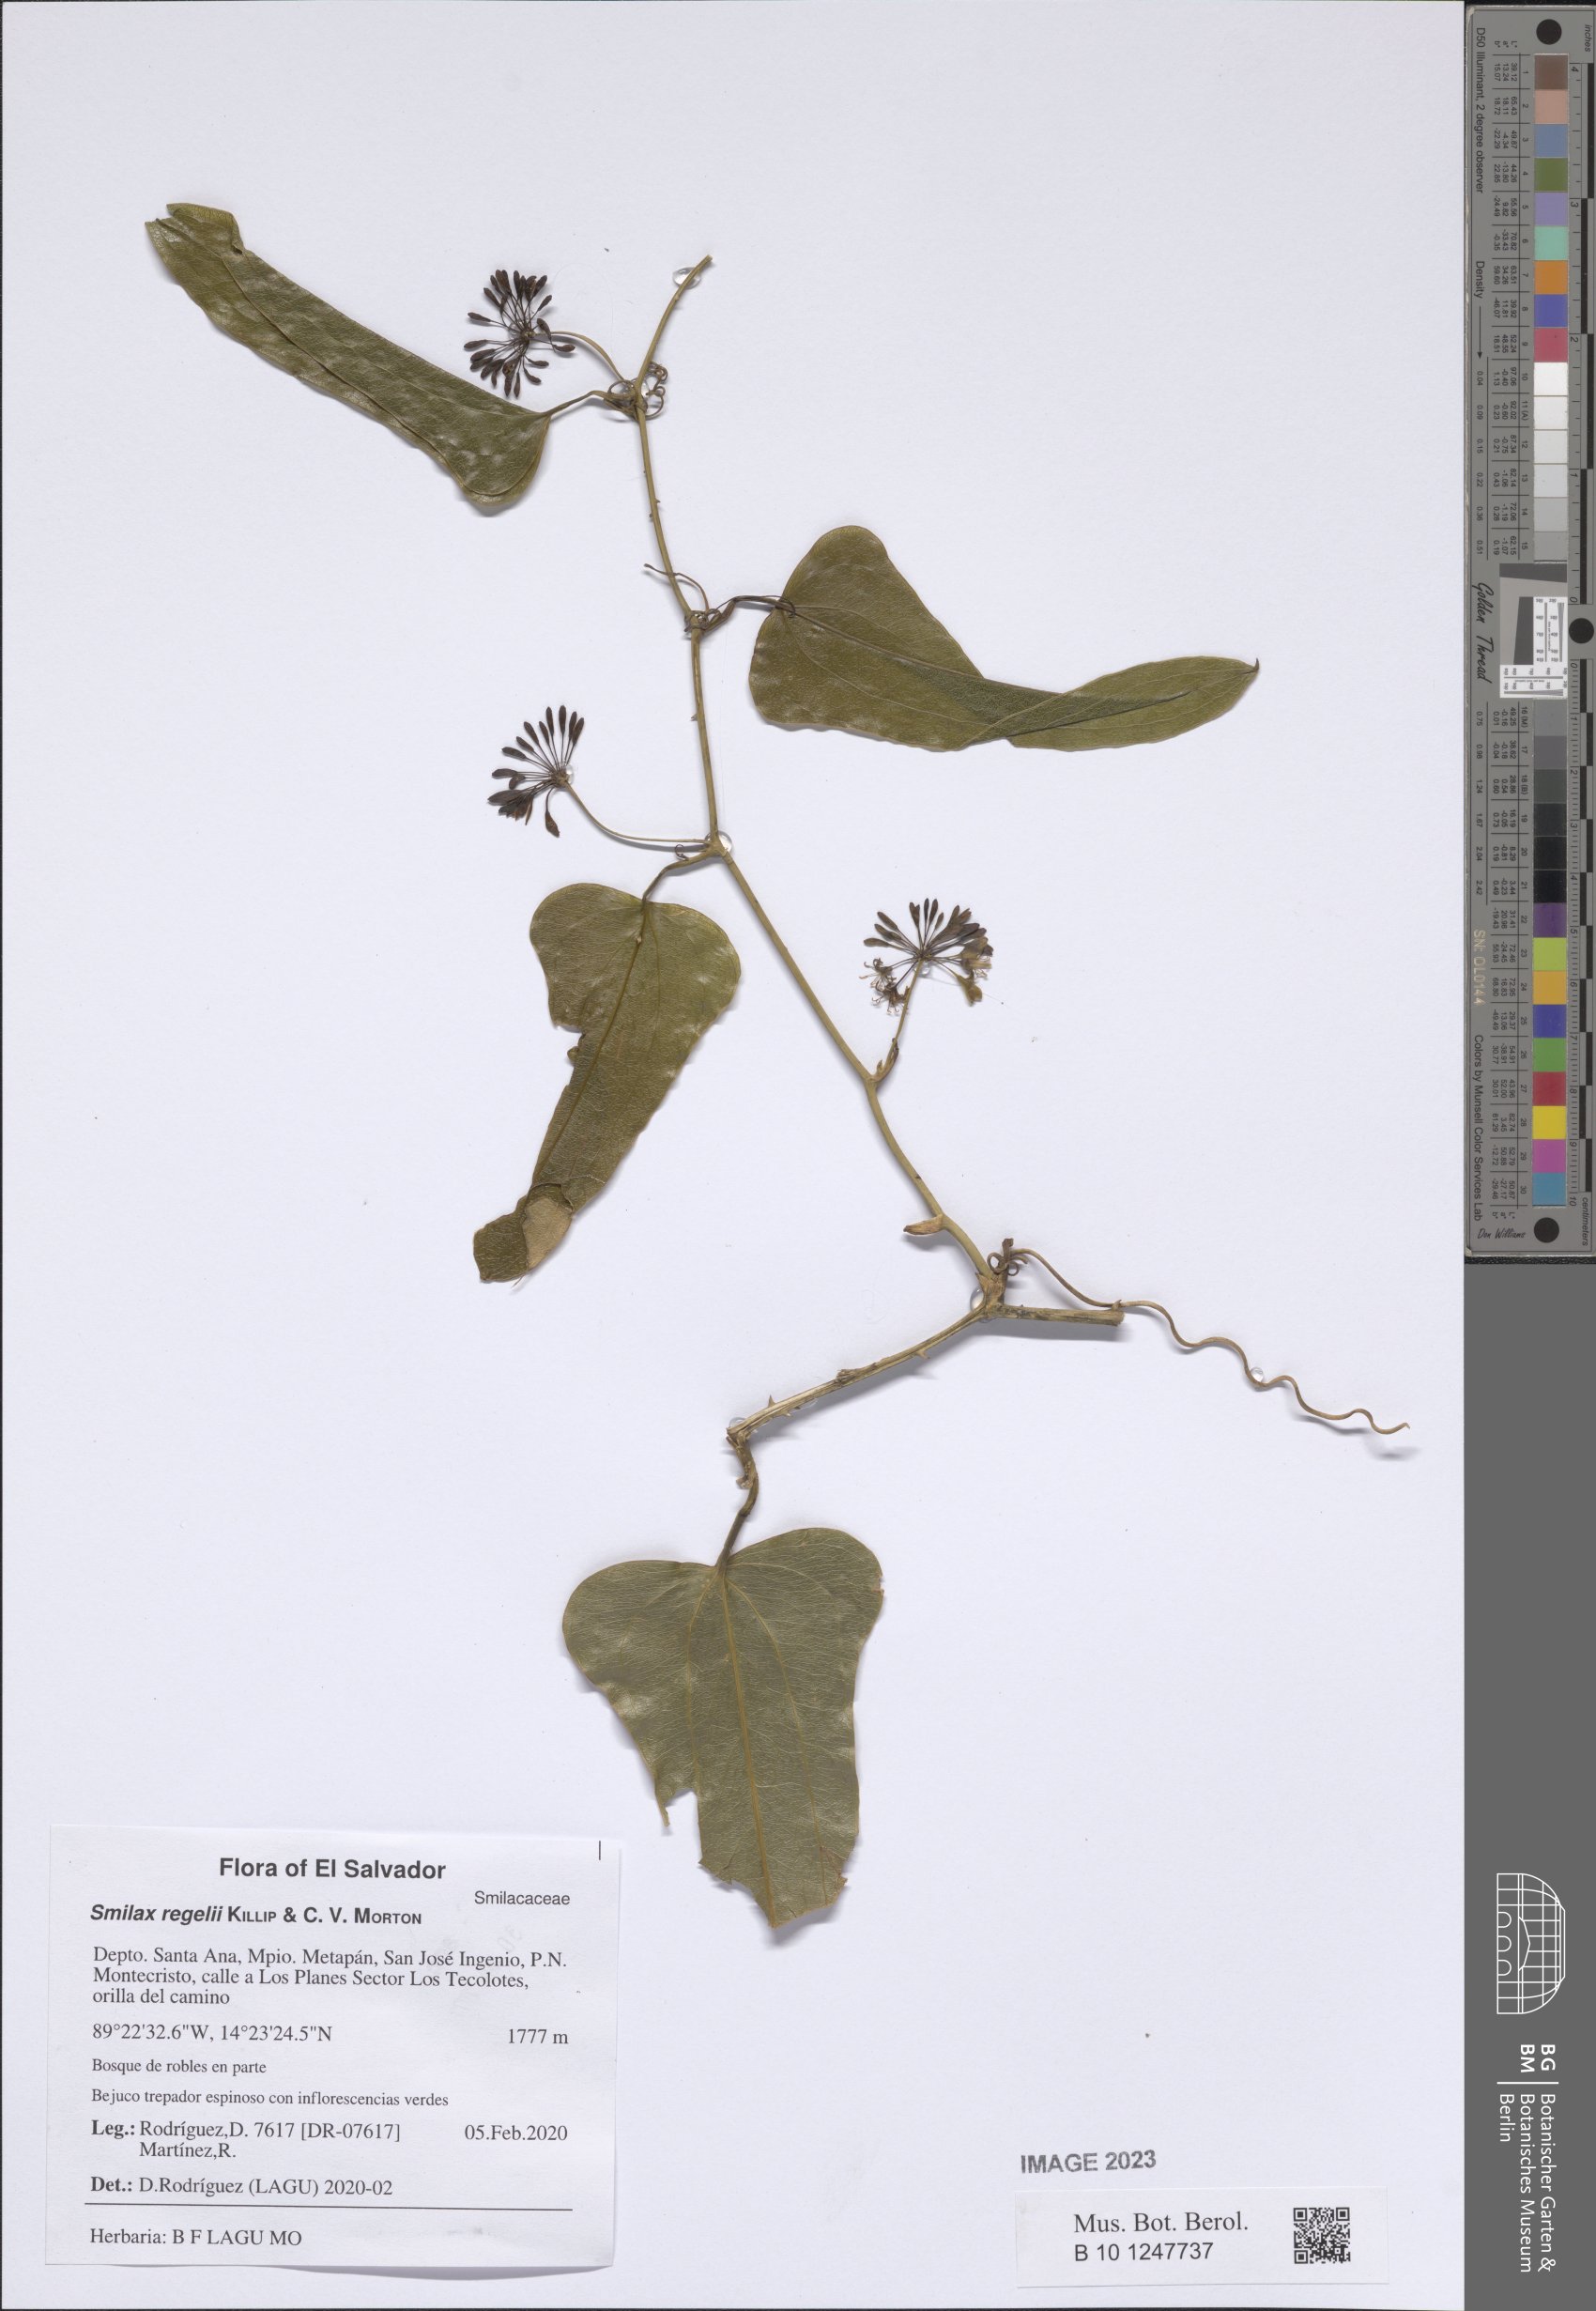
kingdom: Plantae
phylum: Tracheophyta
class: Liliopsida
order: Liliales
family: Smilacaceae
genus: Smilax
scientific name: Smilax ornata
